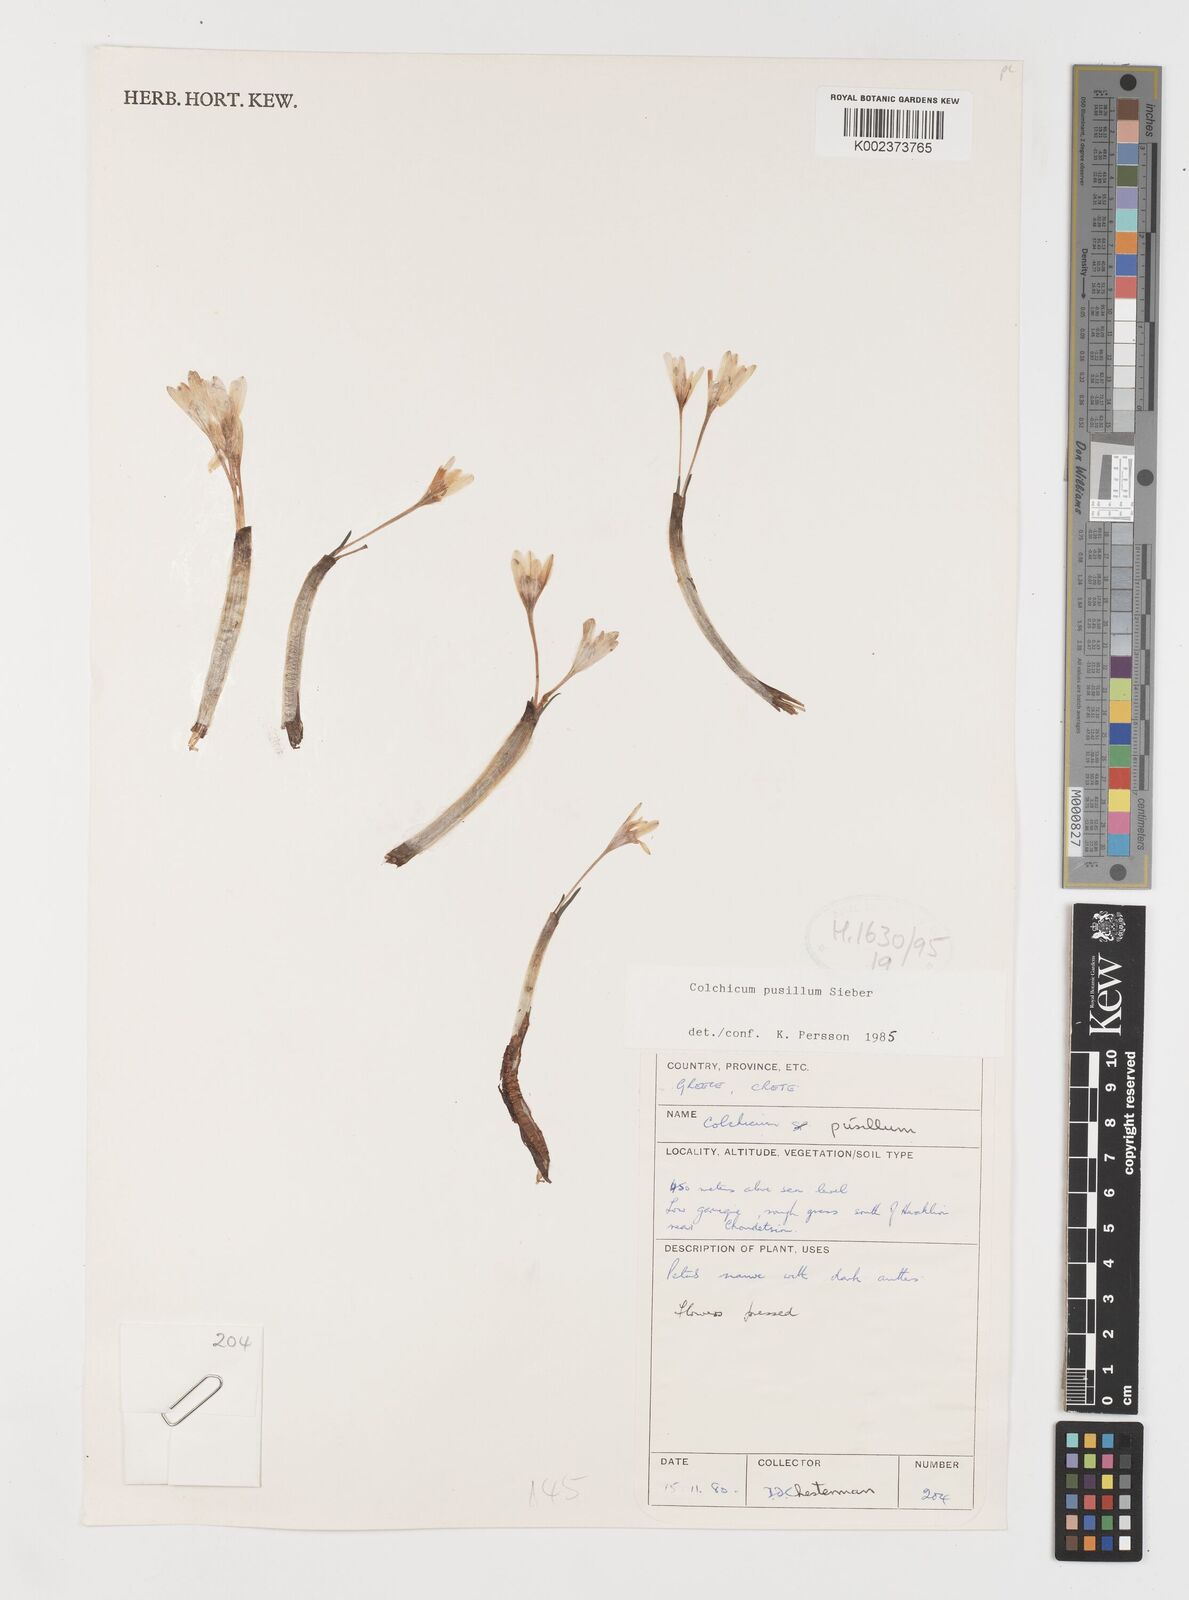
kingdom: Plantae
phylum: Tracheophyta
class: Liliopsida
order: Liliales
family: Colchicaceae
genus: Colchicum
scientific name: Colchicum pusillum
